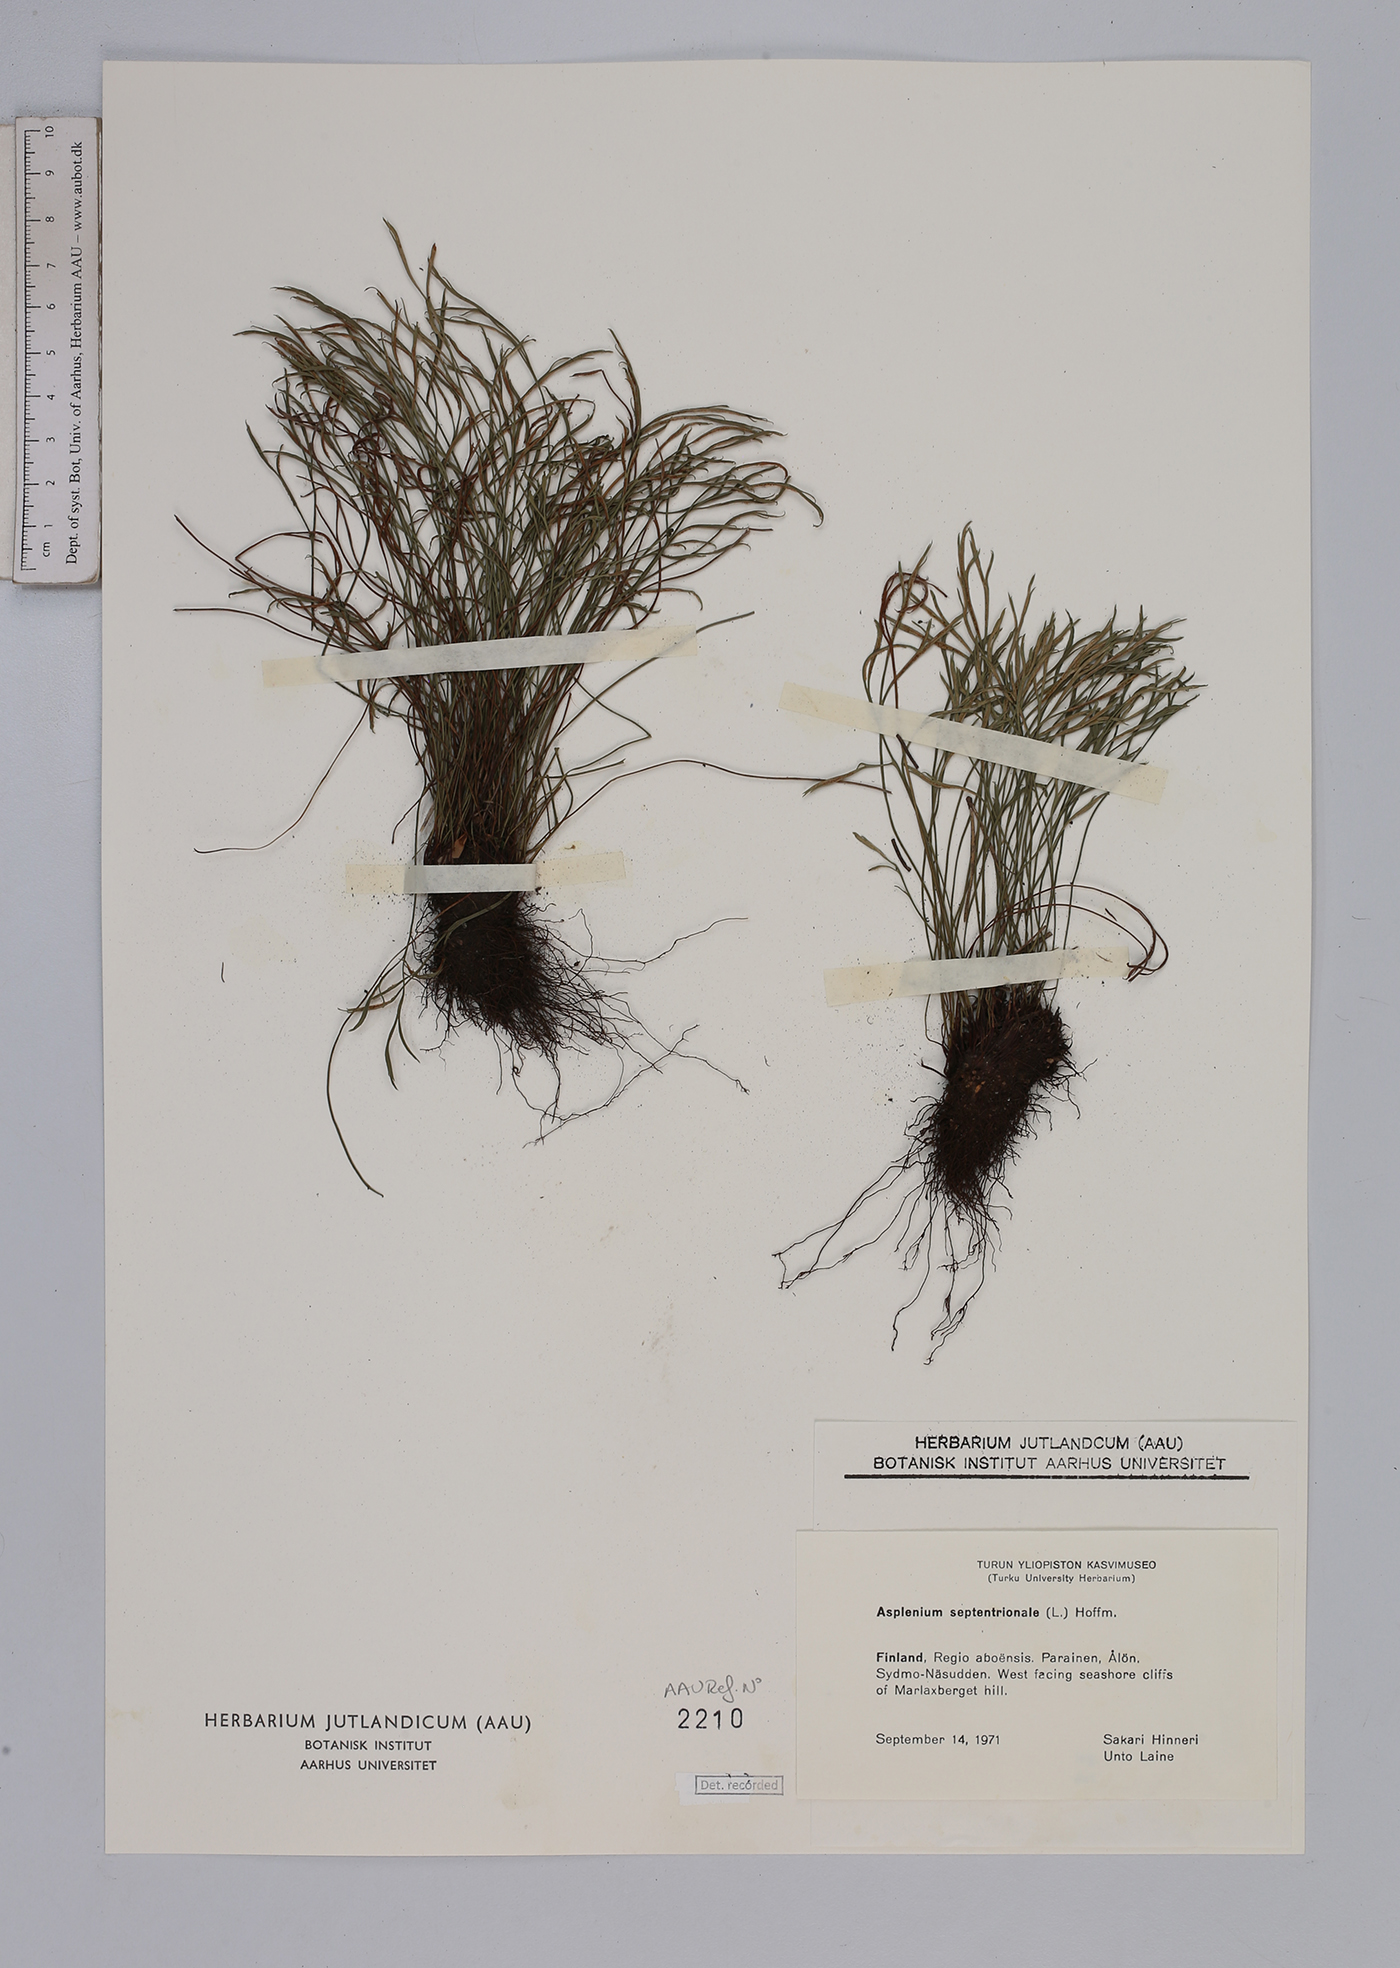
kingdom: Plantae
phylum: Tracheophyta
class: Polypodiopsida
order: Polypodiales
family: Aspleniaceae
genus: Asplenium
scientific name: Asplenium septentrionale
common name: Forked spleenwort
